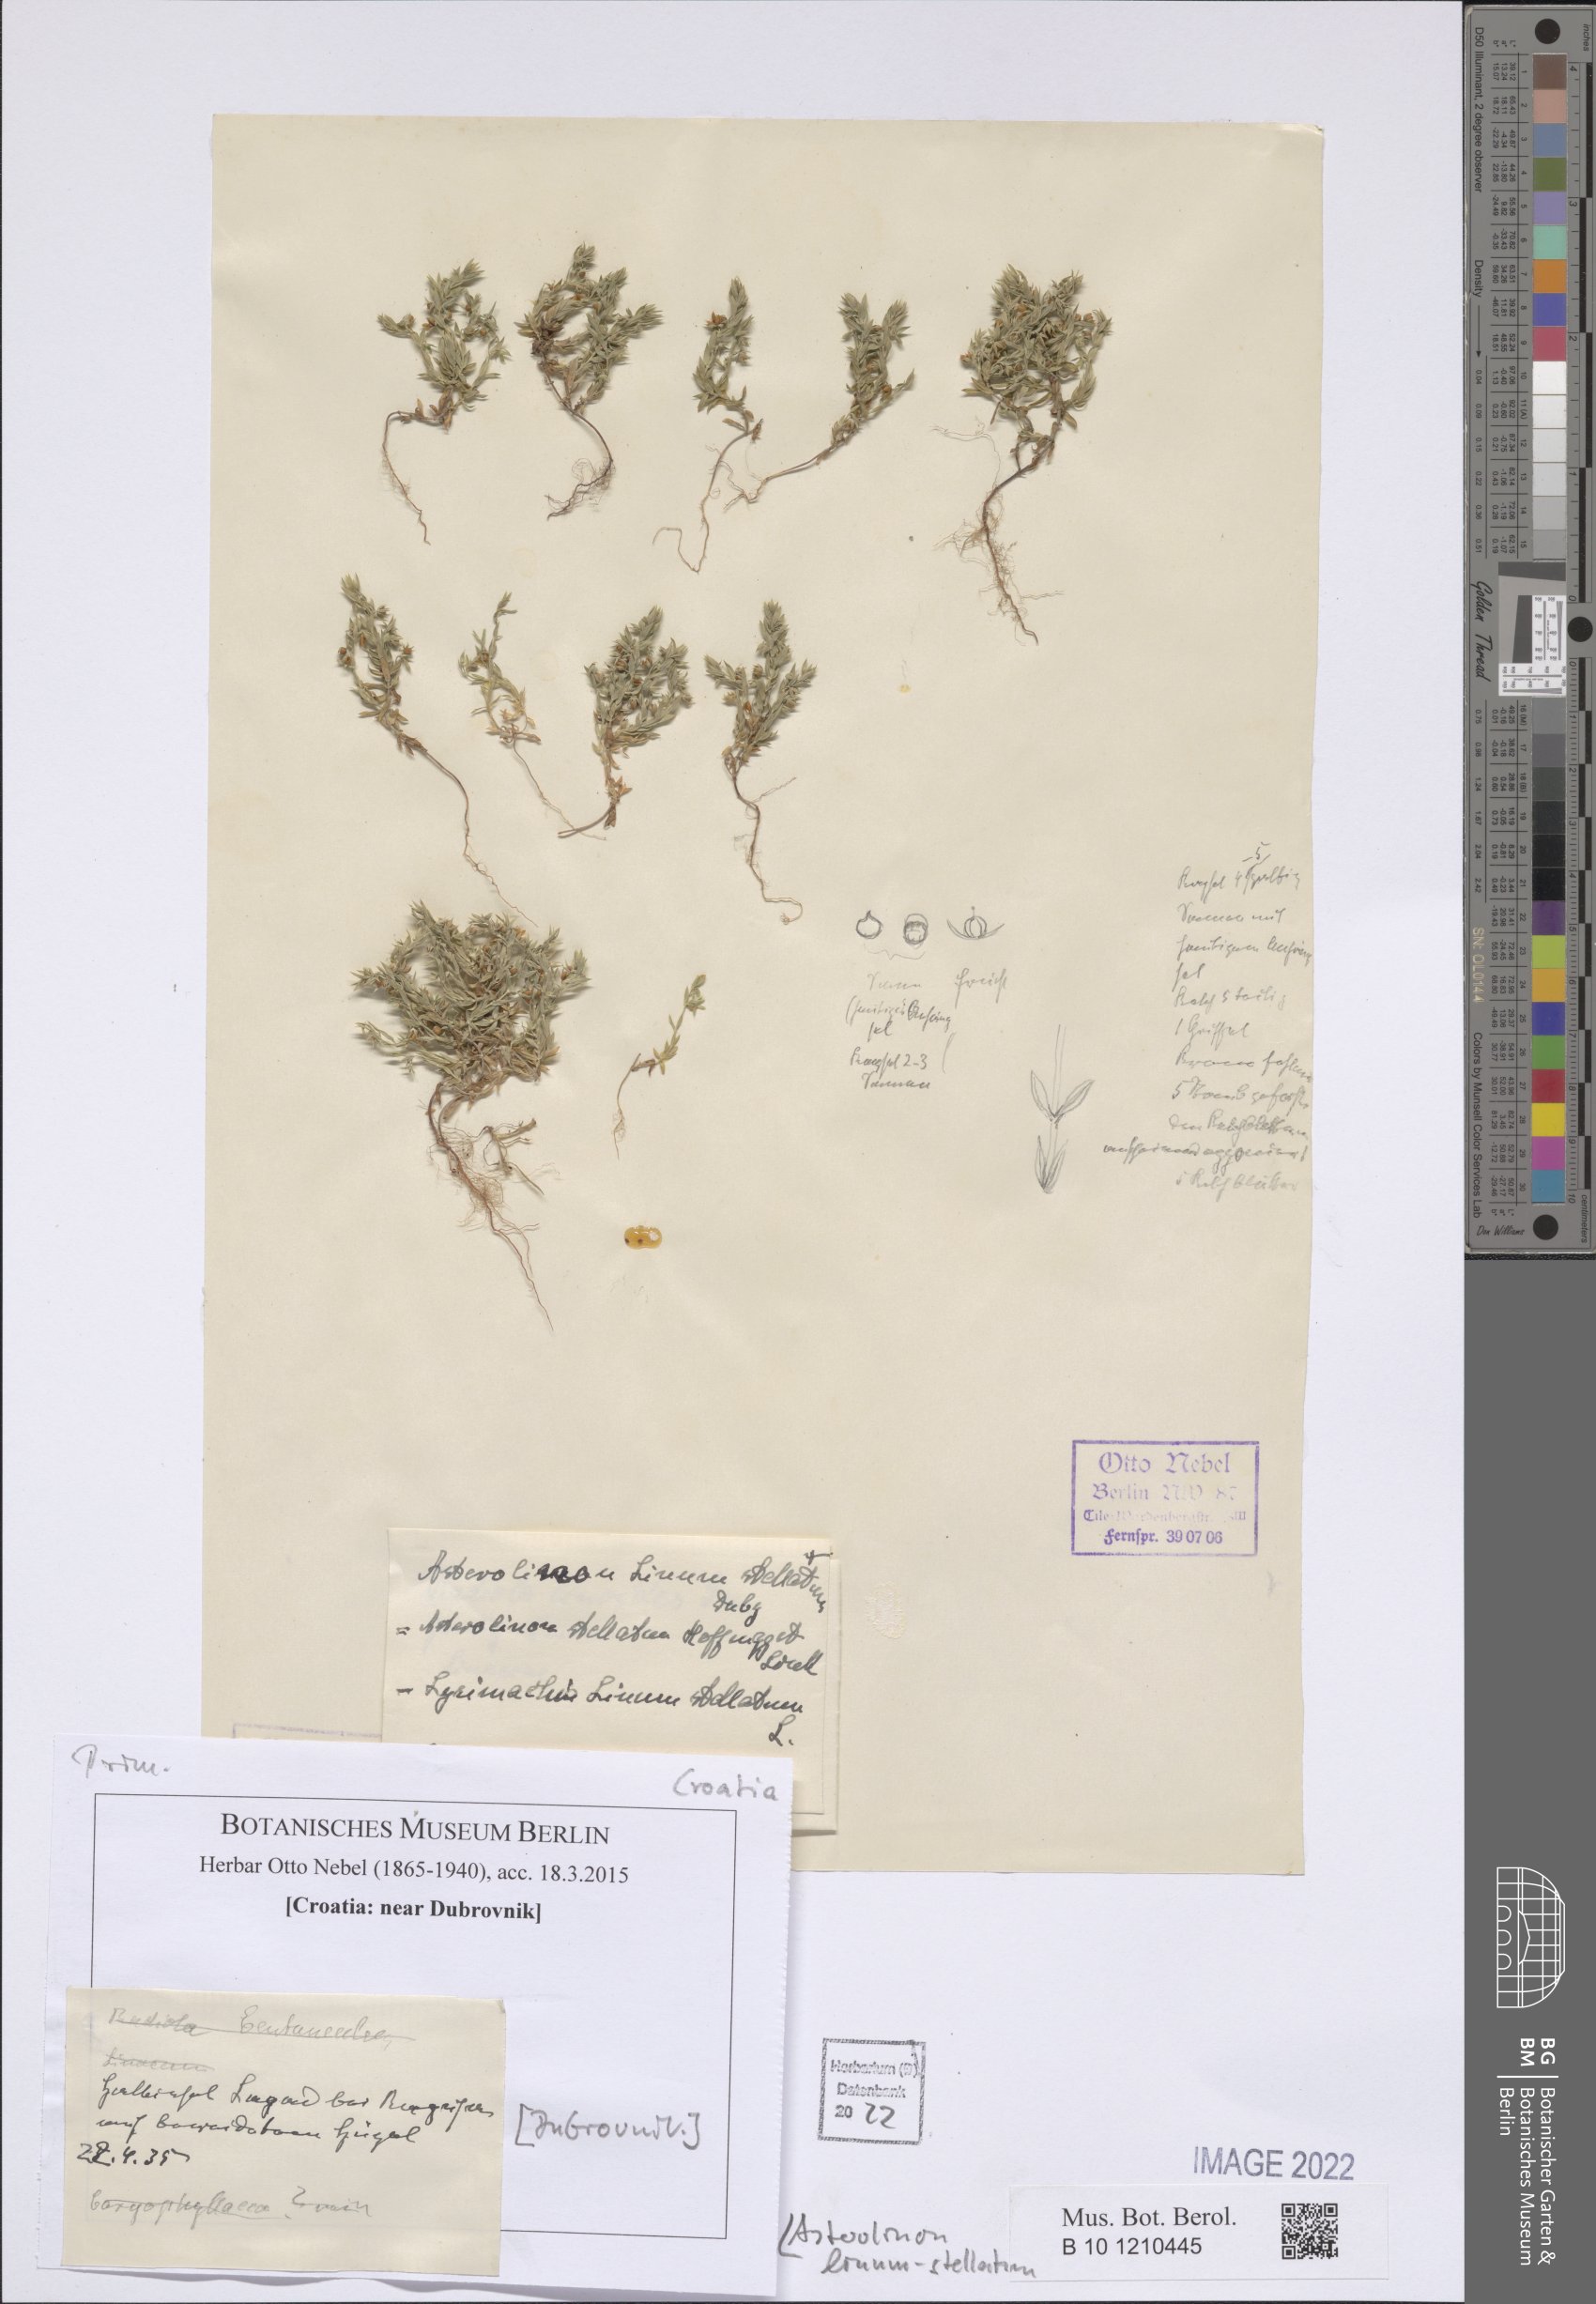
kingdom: Plantae
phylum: Tracheophyta
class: Magnoliopsida
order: Ericales
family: Primulaceae
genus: Lysimachia
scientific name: Lysimachia linum-stellatum
